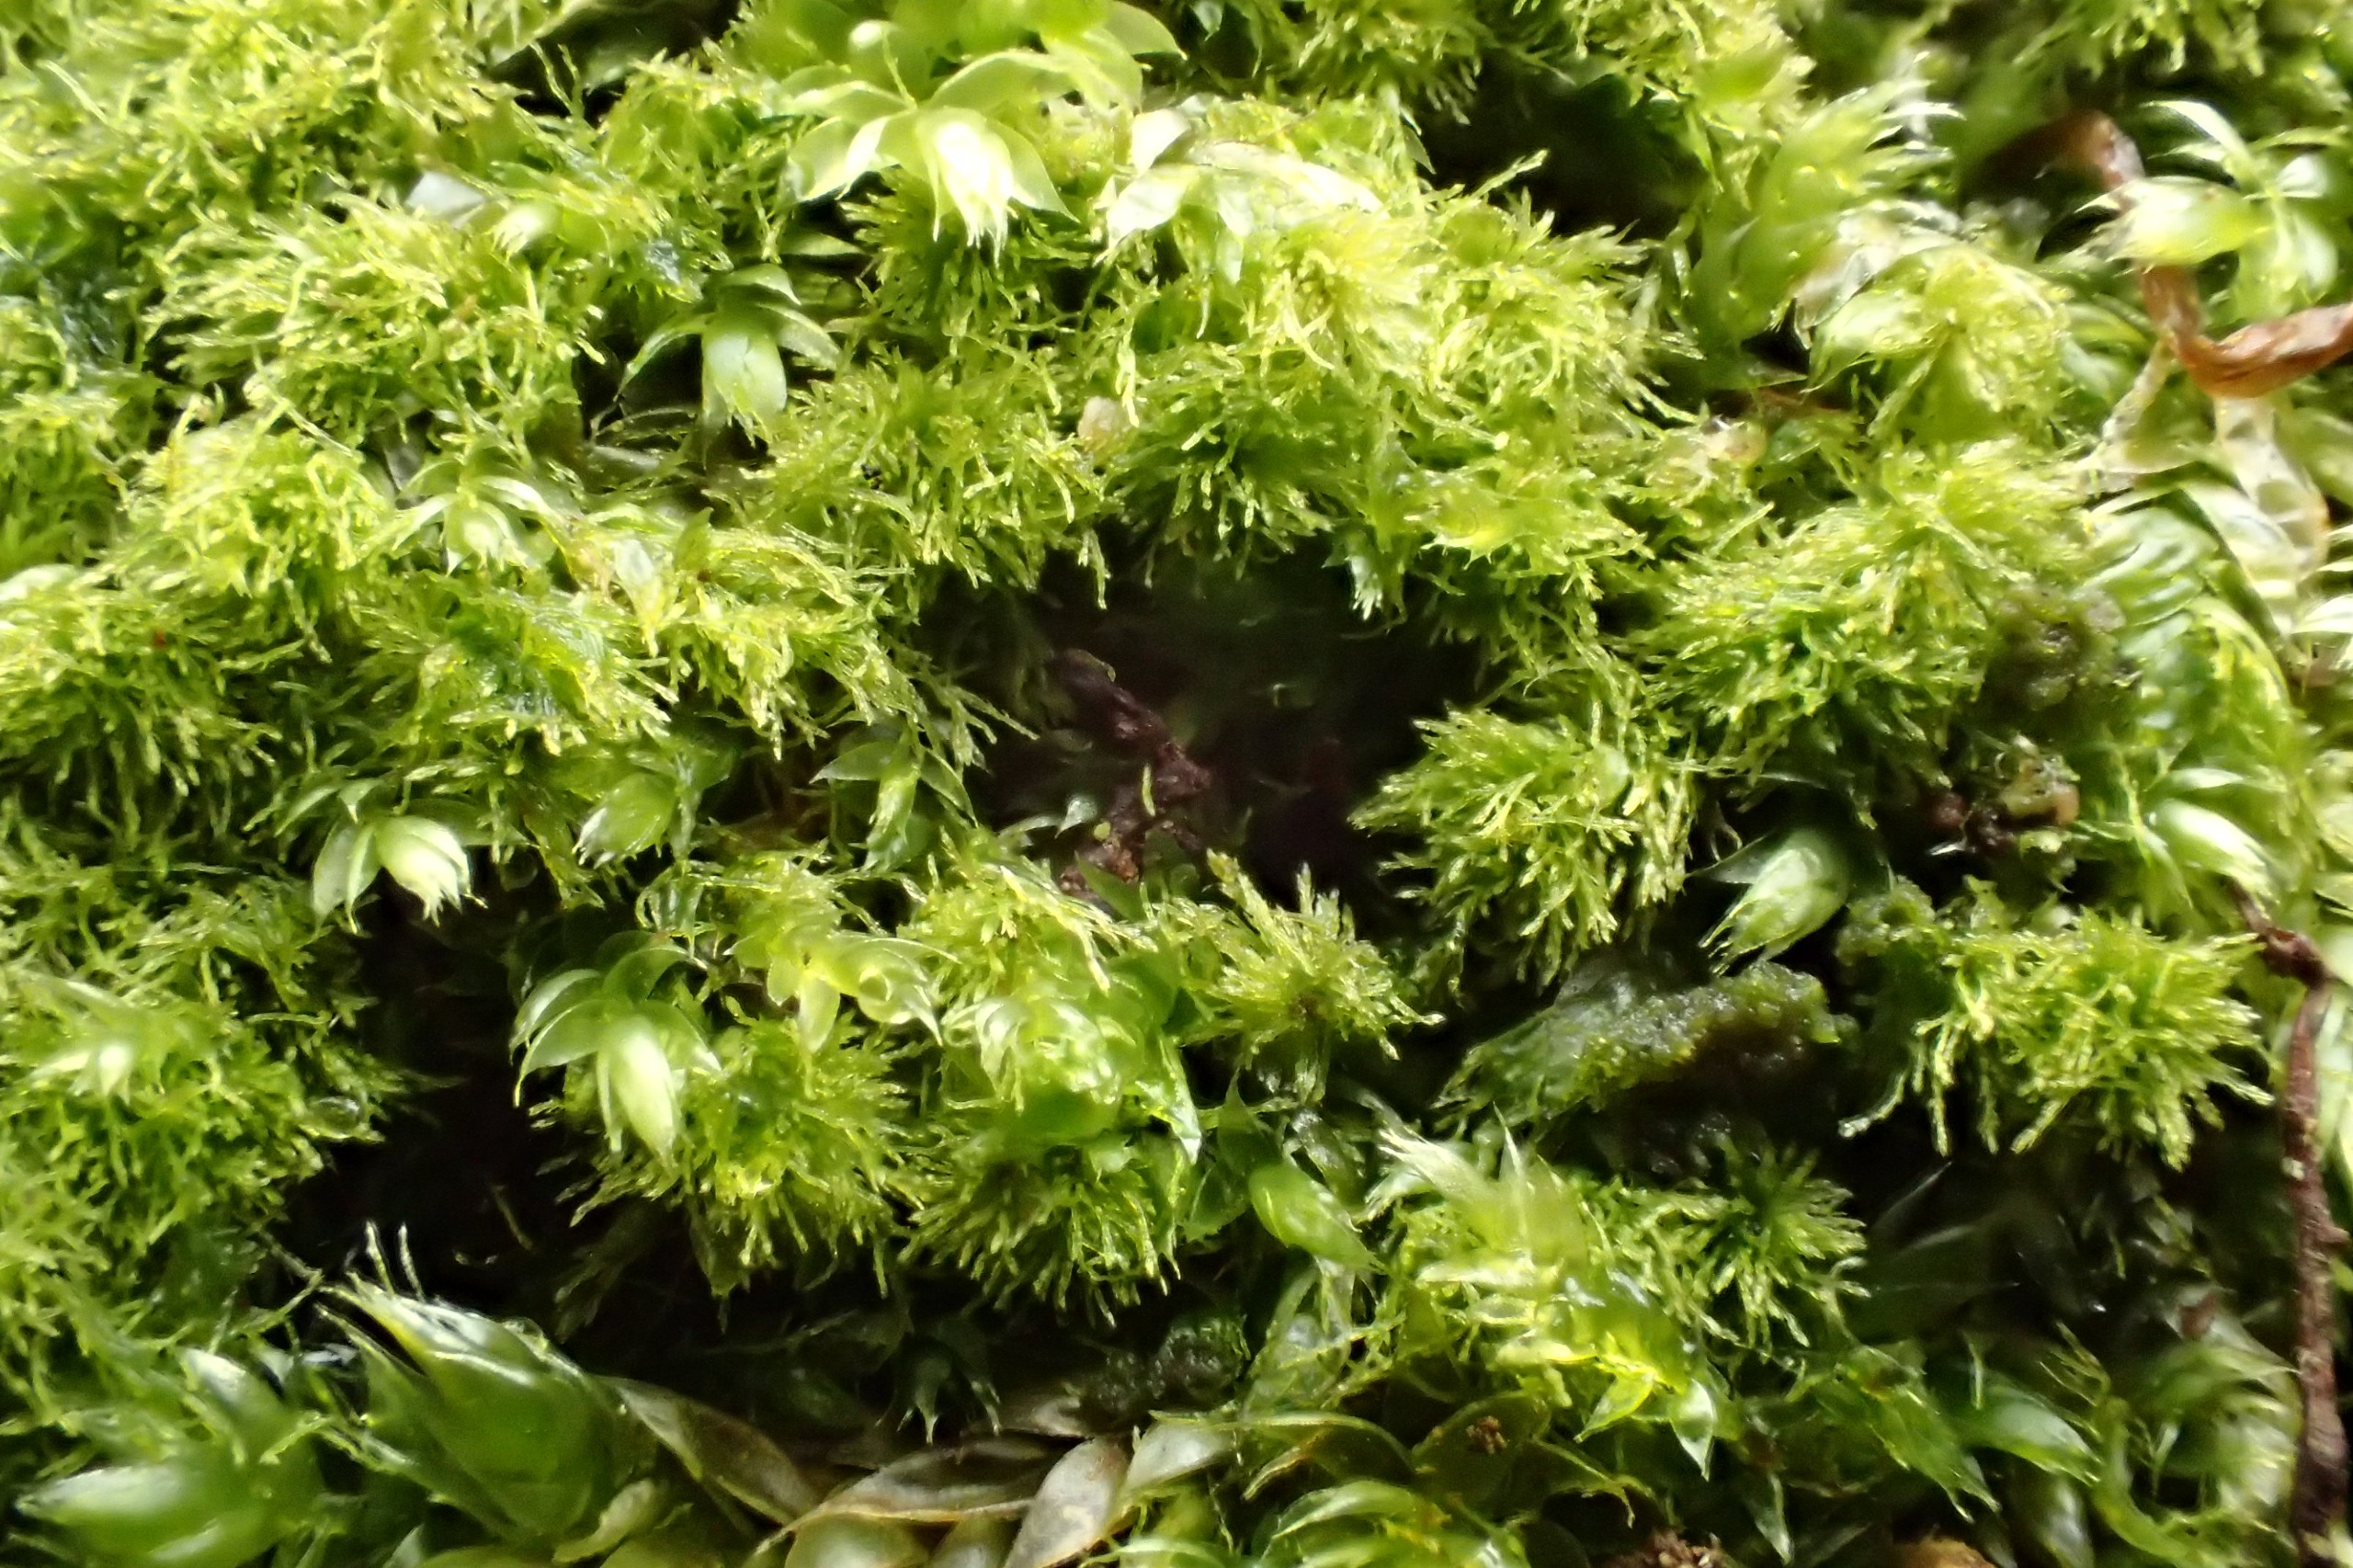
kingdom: Plantae
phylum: Bryophyta
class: Bryopsida
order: Hypnales
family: Plagiotheciaceae
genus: Pseudotaxiphyllum
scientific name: Pseudotaxiphyllum elegans
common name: Skinnende ynglegren
